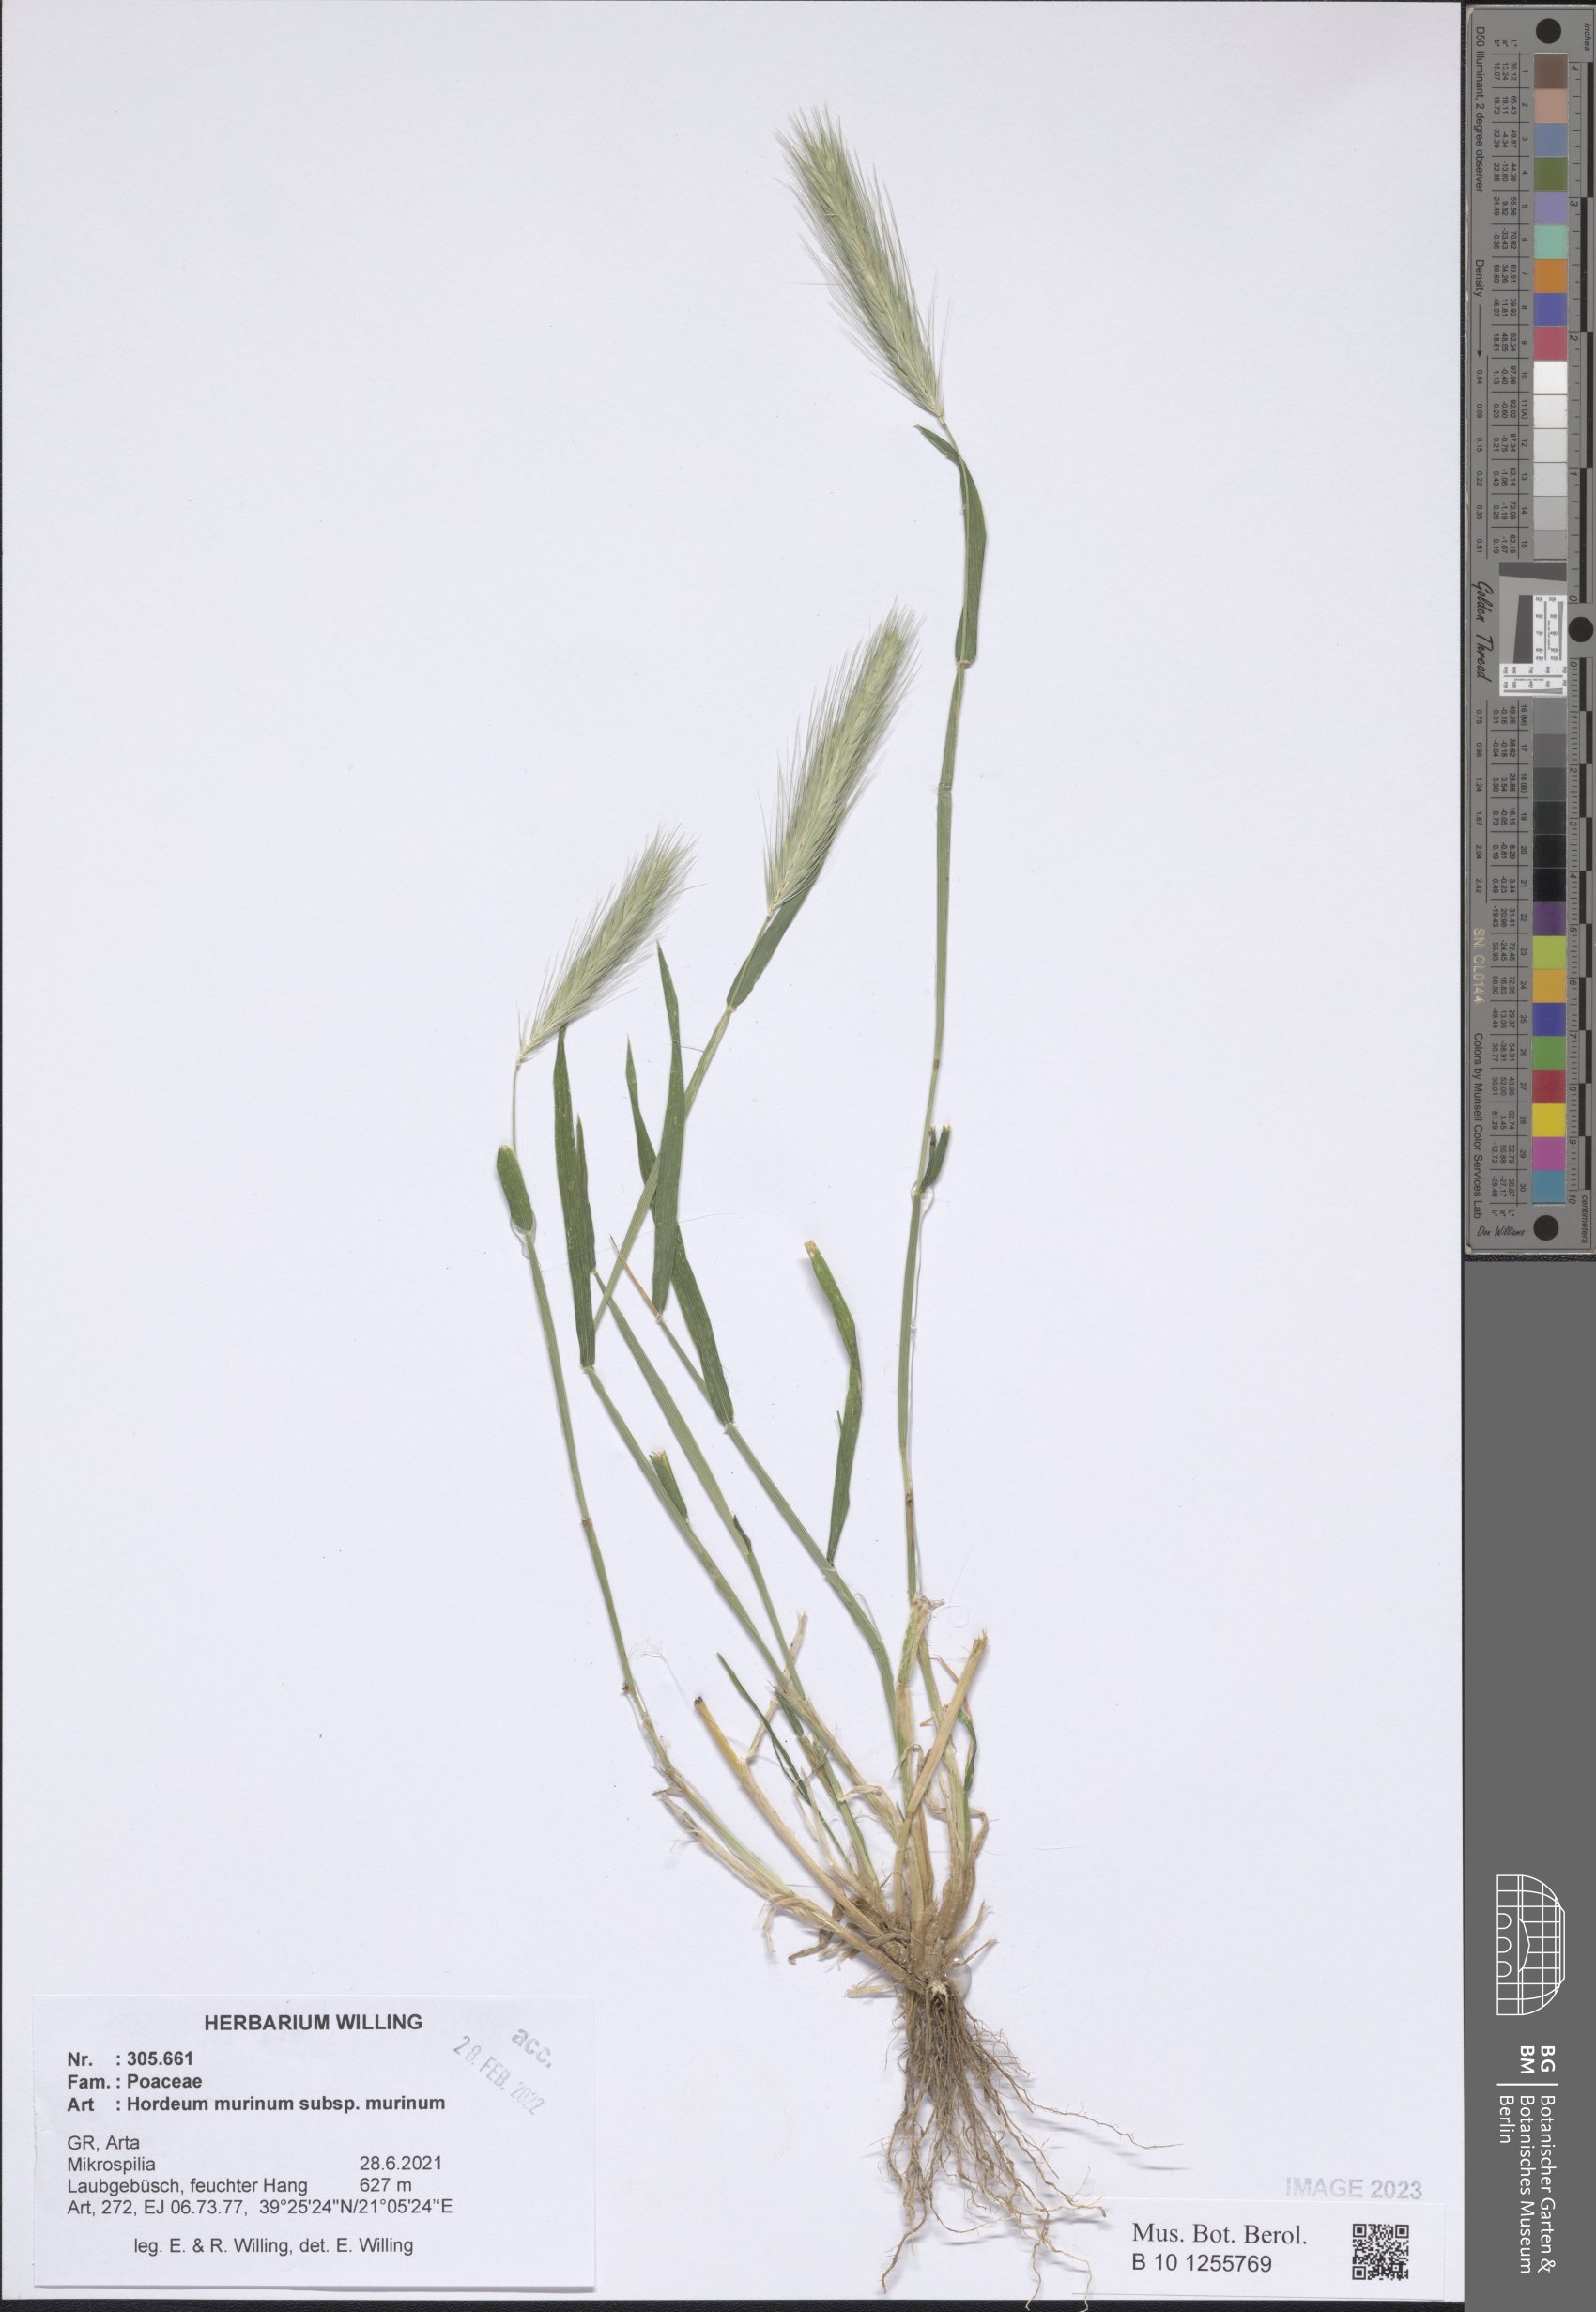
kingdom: Plantae
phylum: Tracheophyta
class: Liliopsida
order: Poales
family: Poaceae
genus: Hordeum
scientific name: Hordeum murinum
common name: Wall barley
